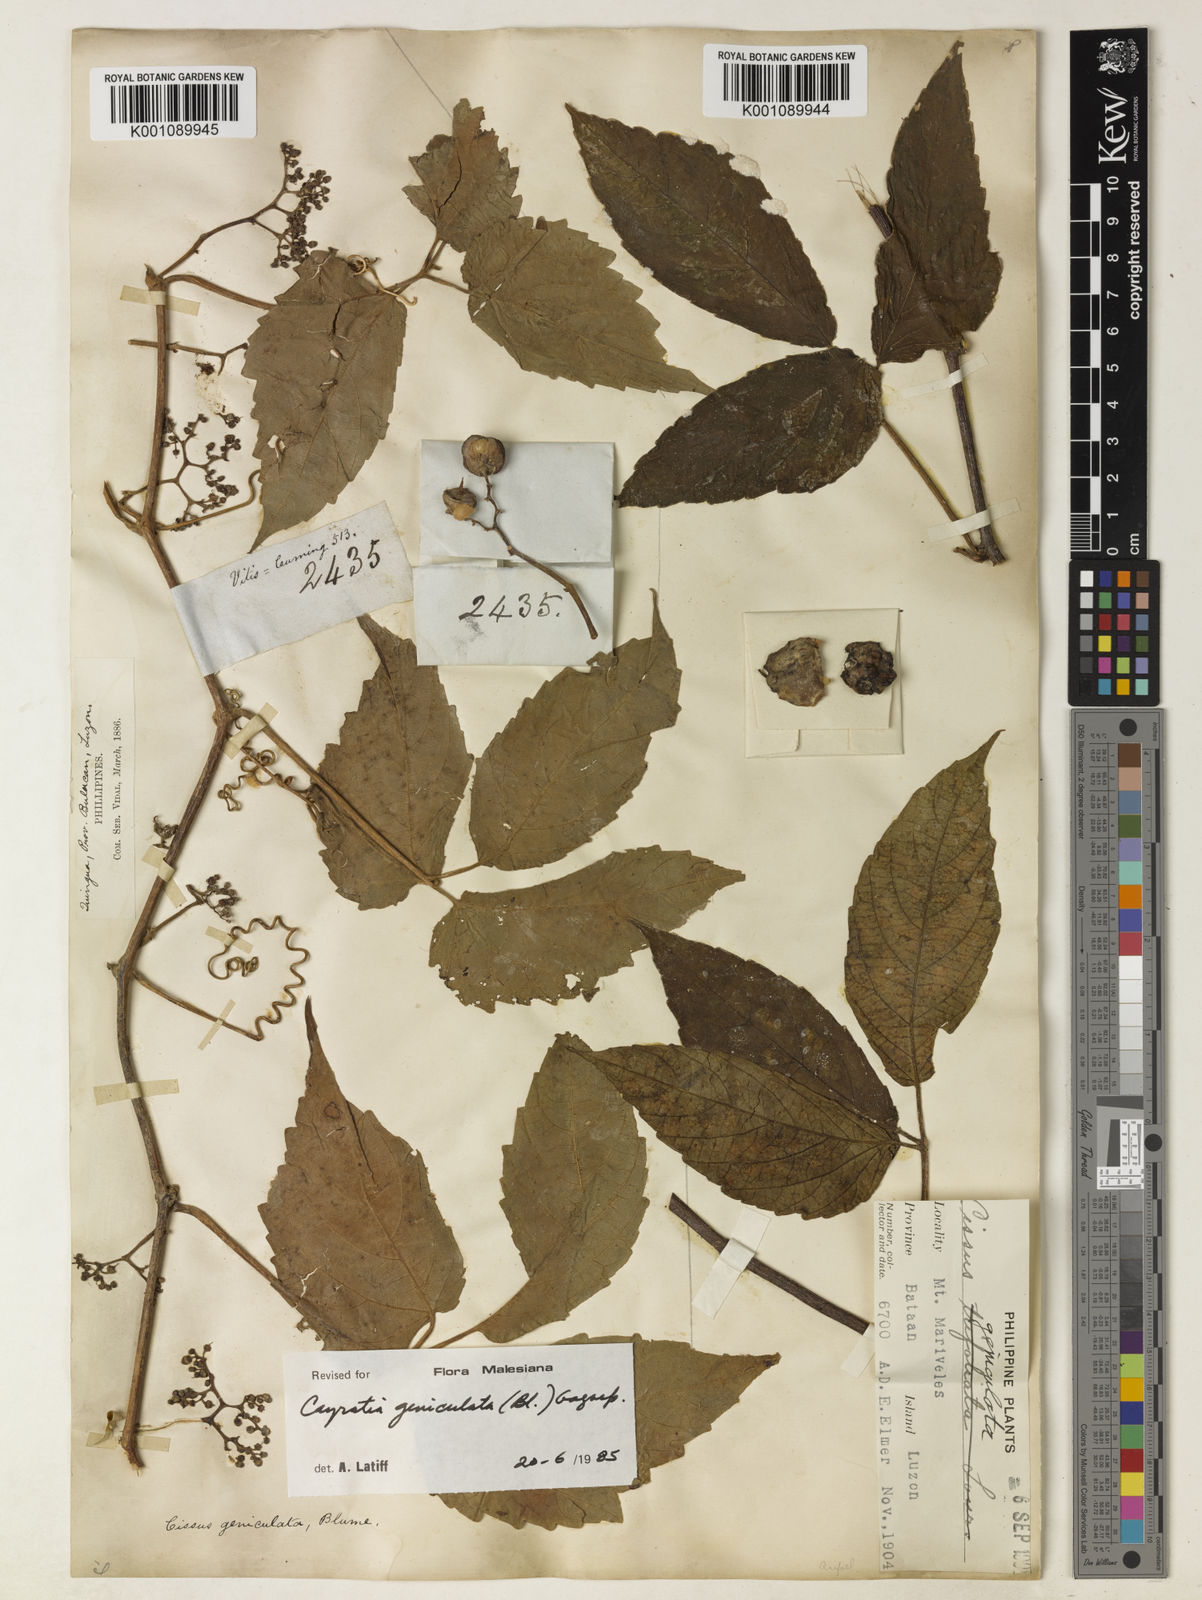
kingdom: Plantae
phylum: Tracheophyta
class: Magnoliopsida
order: Vitales
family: Vitaceae
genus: Cayratia
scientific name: Cayratia mollissima
